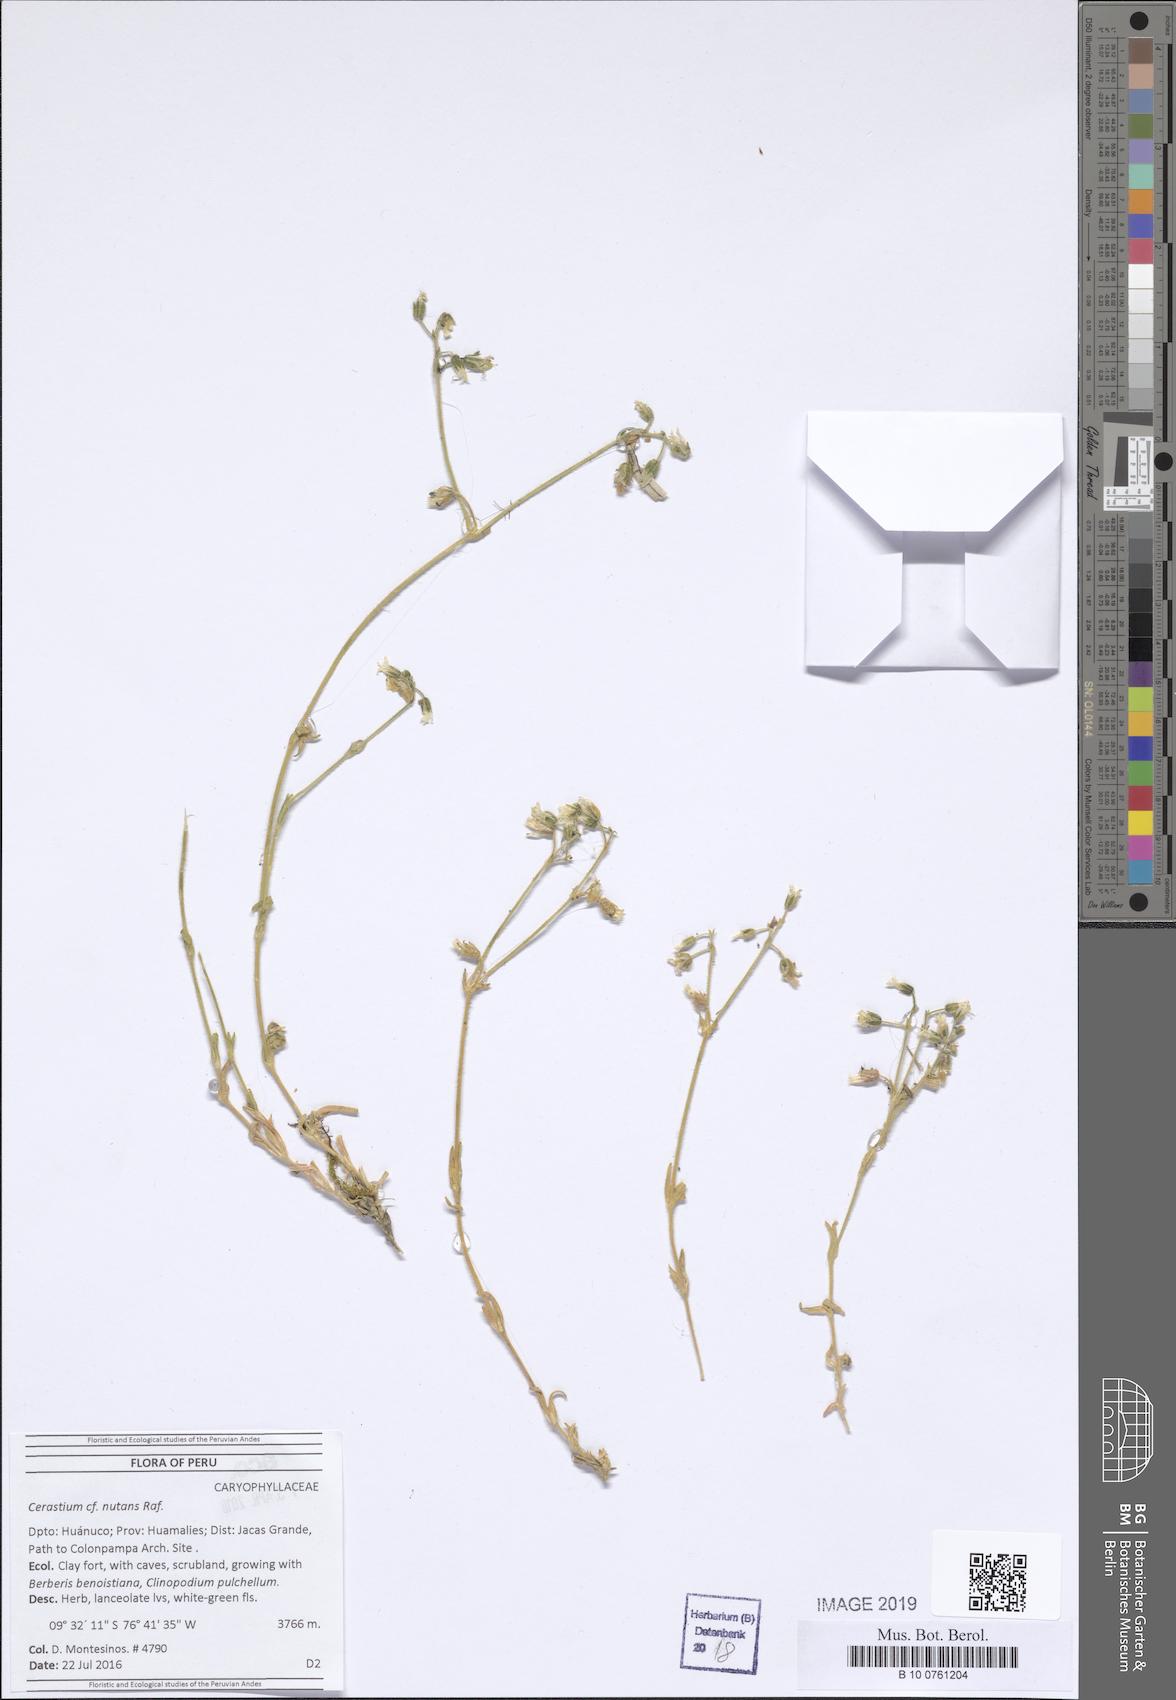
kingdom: Plantae
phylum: Tracheophyta
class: Magnoliopsida
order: Caryophyllales
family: Caryophyllaceae
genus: Cerastium
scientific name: Cerastium nutans
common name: Long-stalked chickweed
